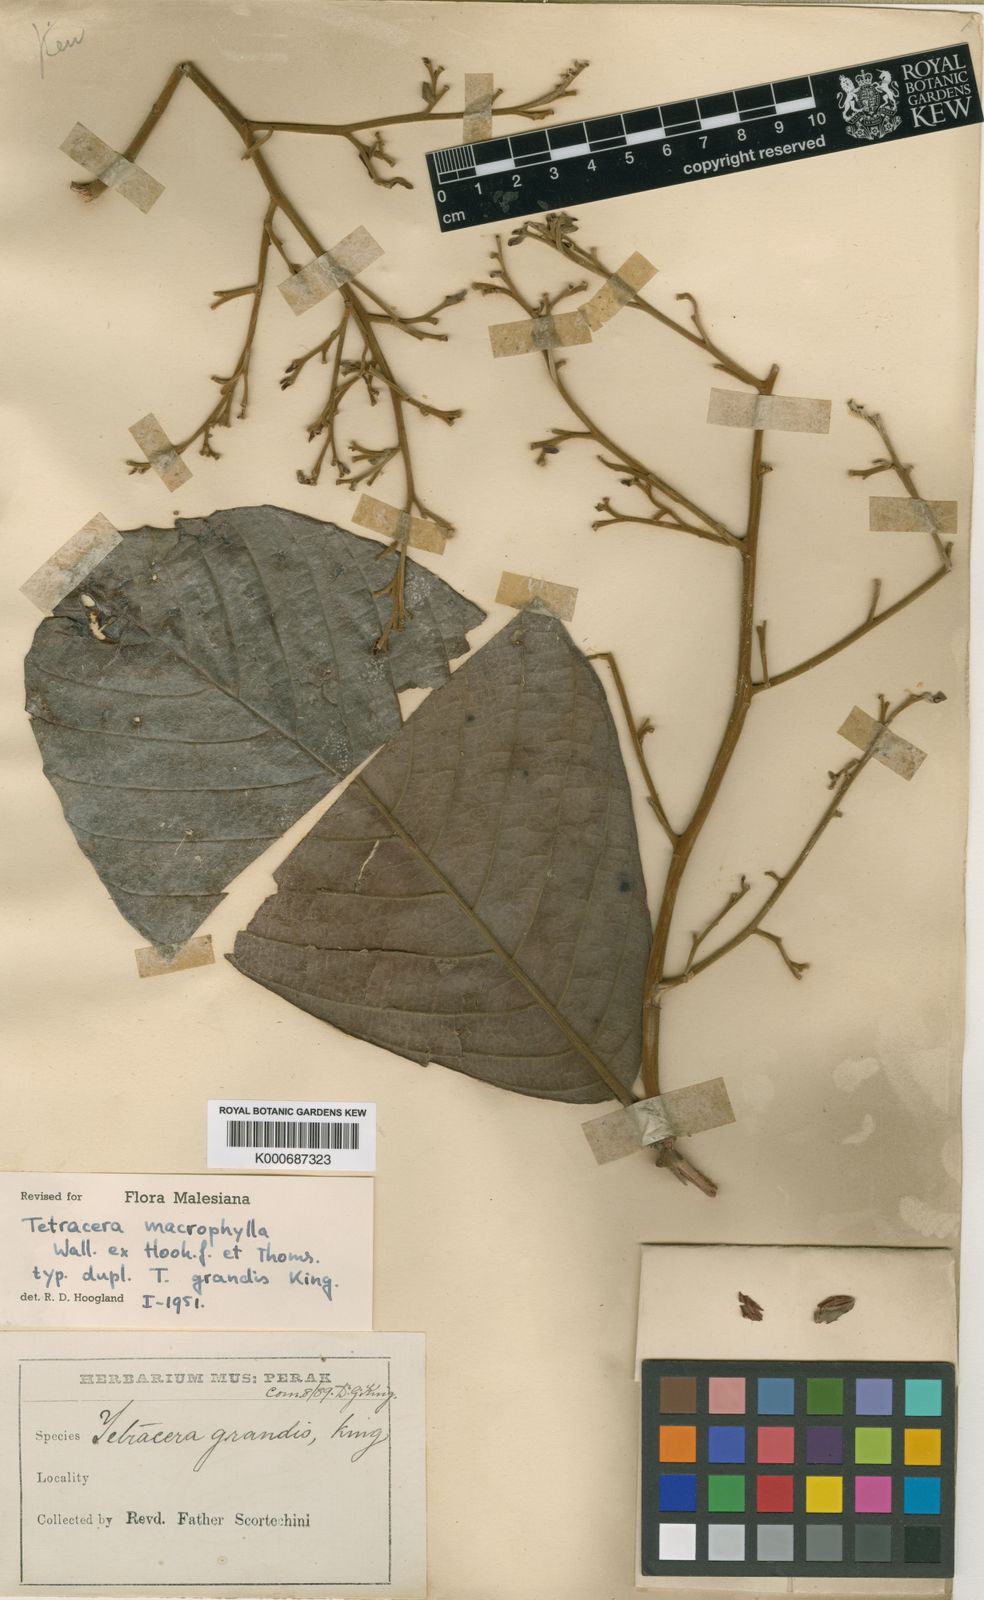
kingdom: Plantae
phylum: Tracheophyta
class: Magnoliopsida
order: Dilleniales
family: Dilleniaceae
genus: Tetracera
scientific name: Tetracera macrophylla
